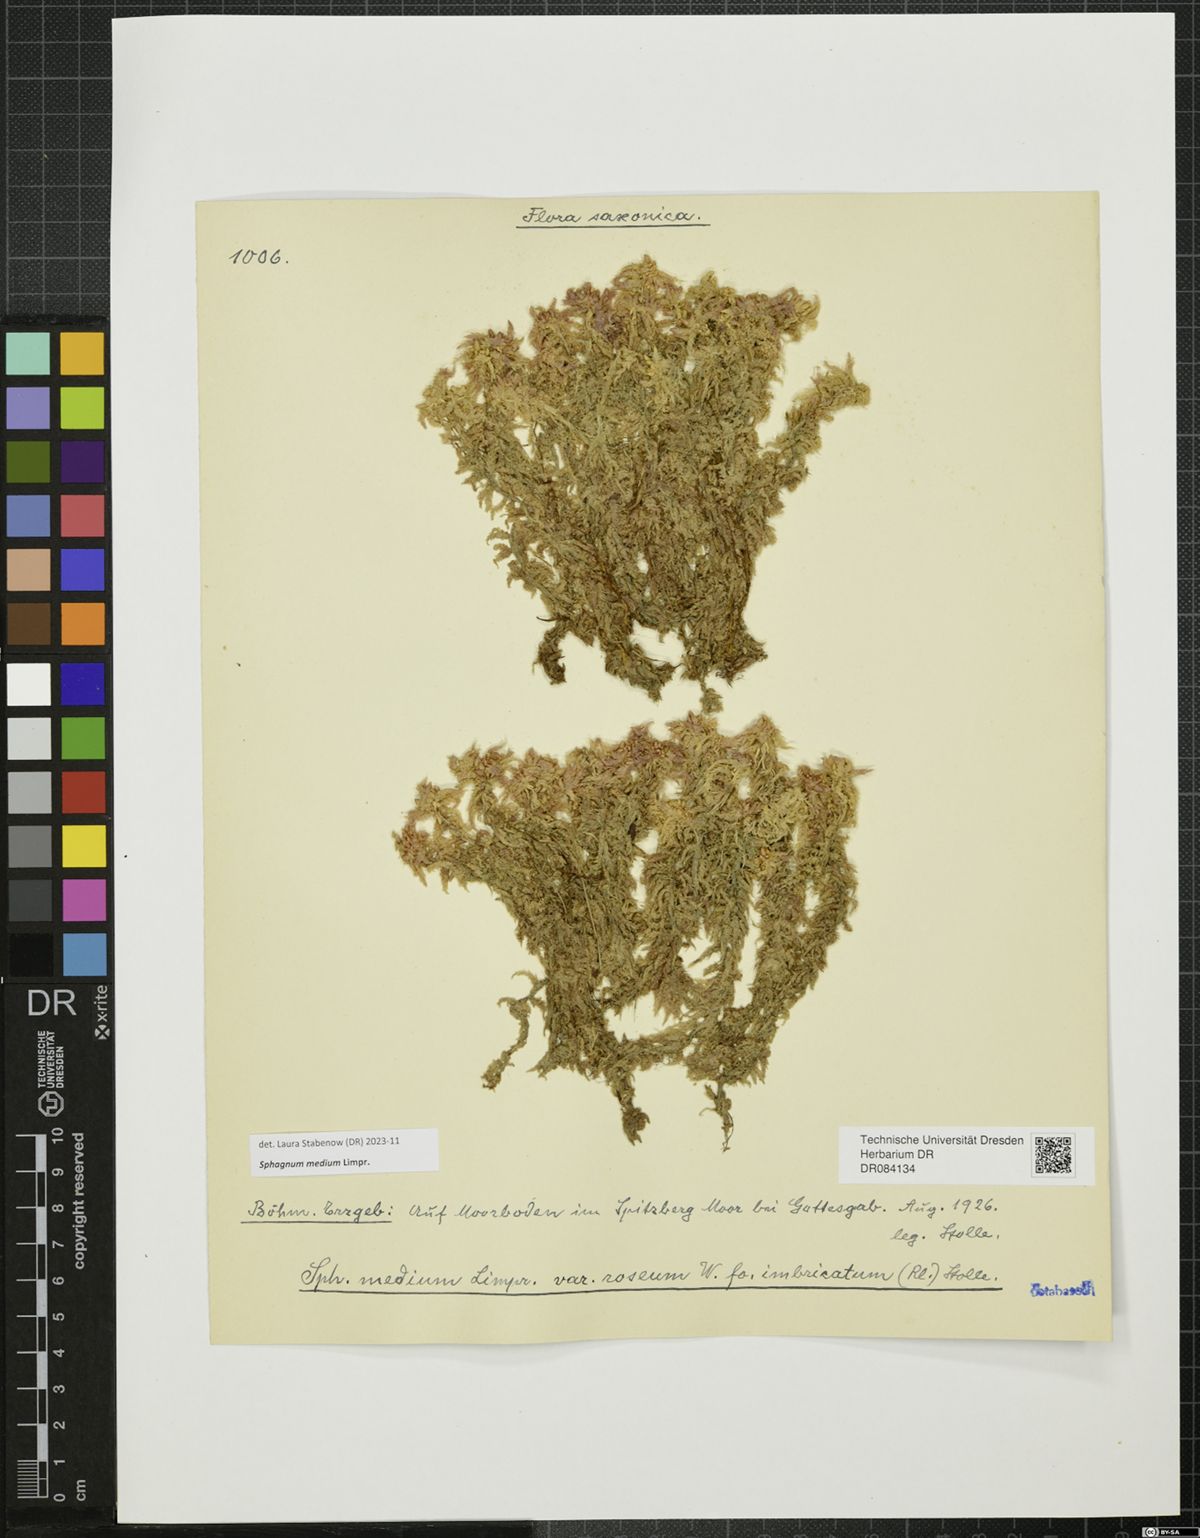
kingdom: Plantae
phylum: Bryophyta
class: Sphagnopsida
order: Sphagnales
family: Sphagnaceae
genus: Sphagnum
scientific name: Sphagnum medium
